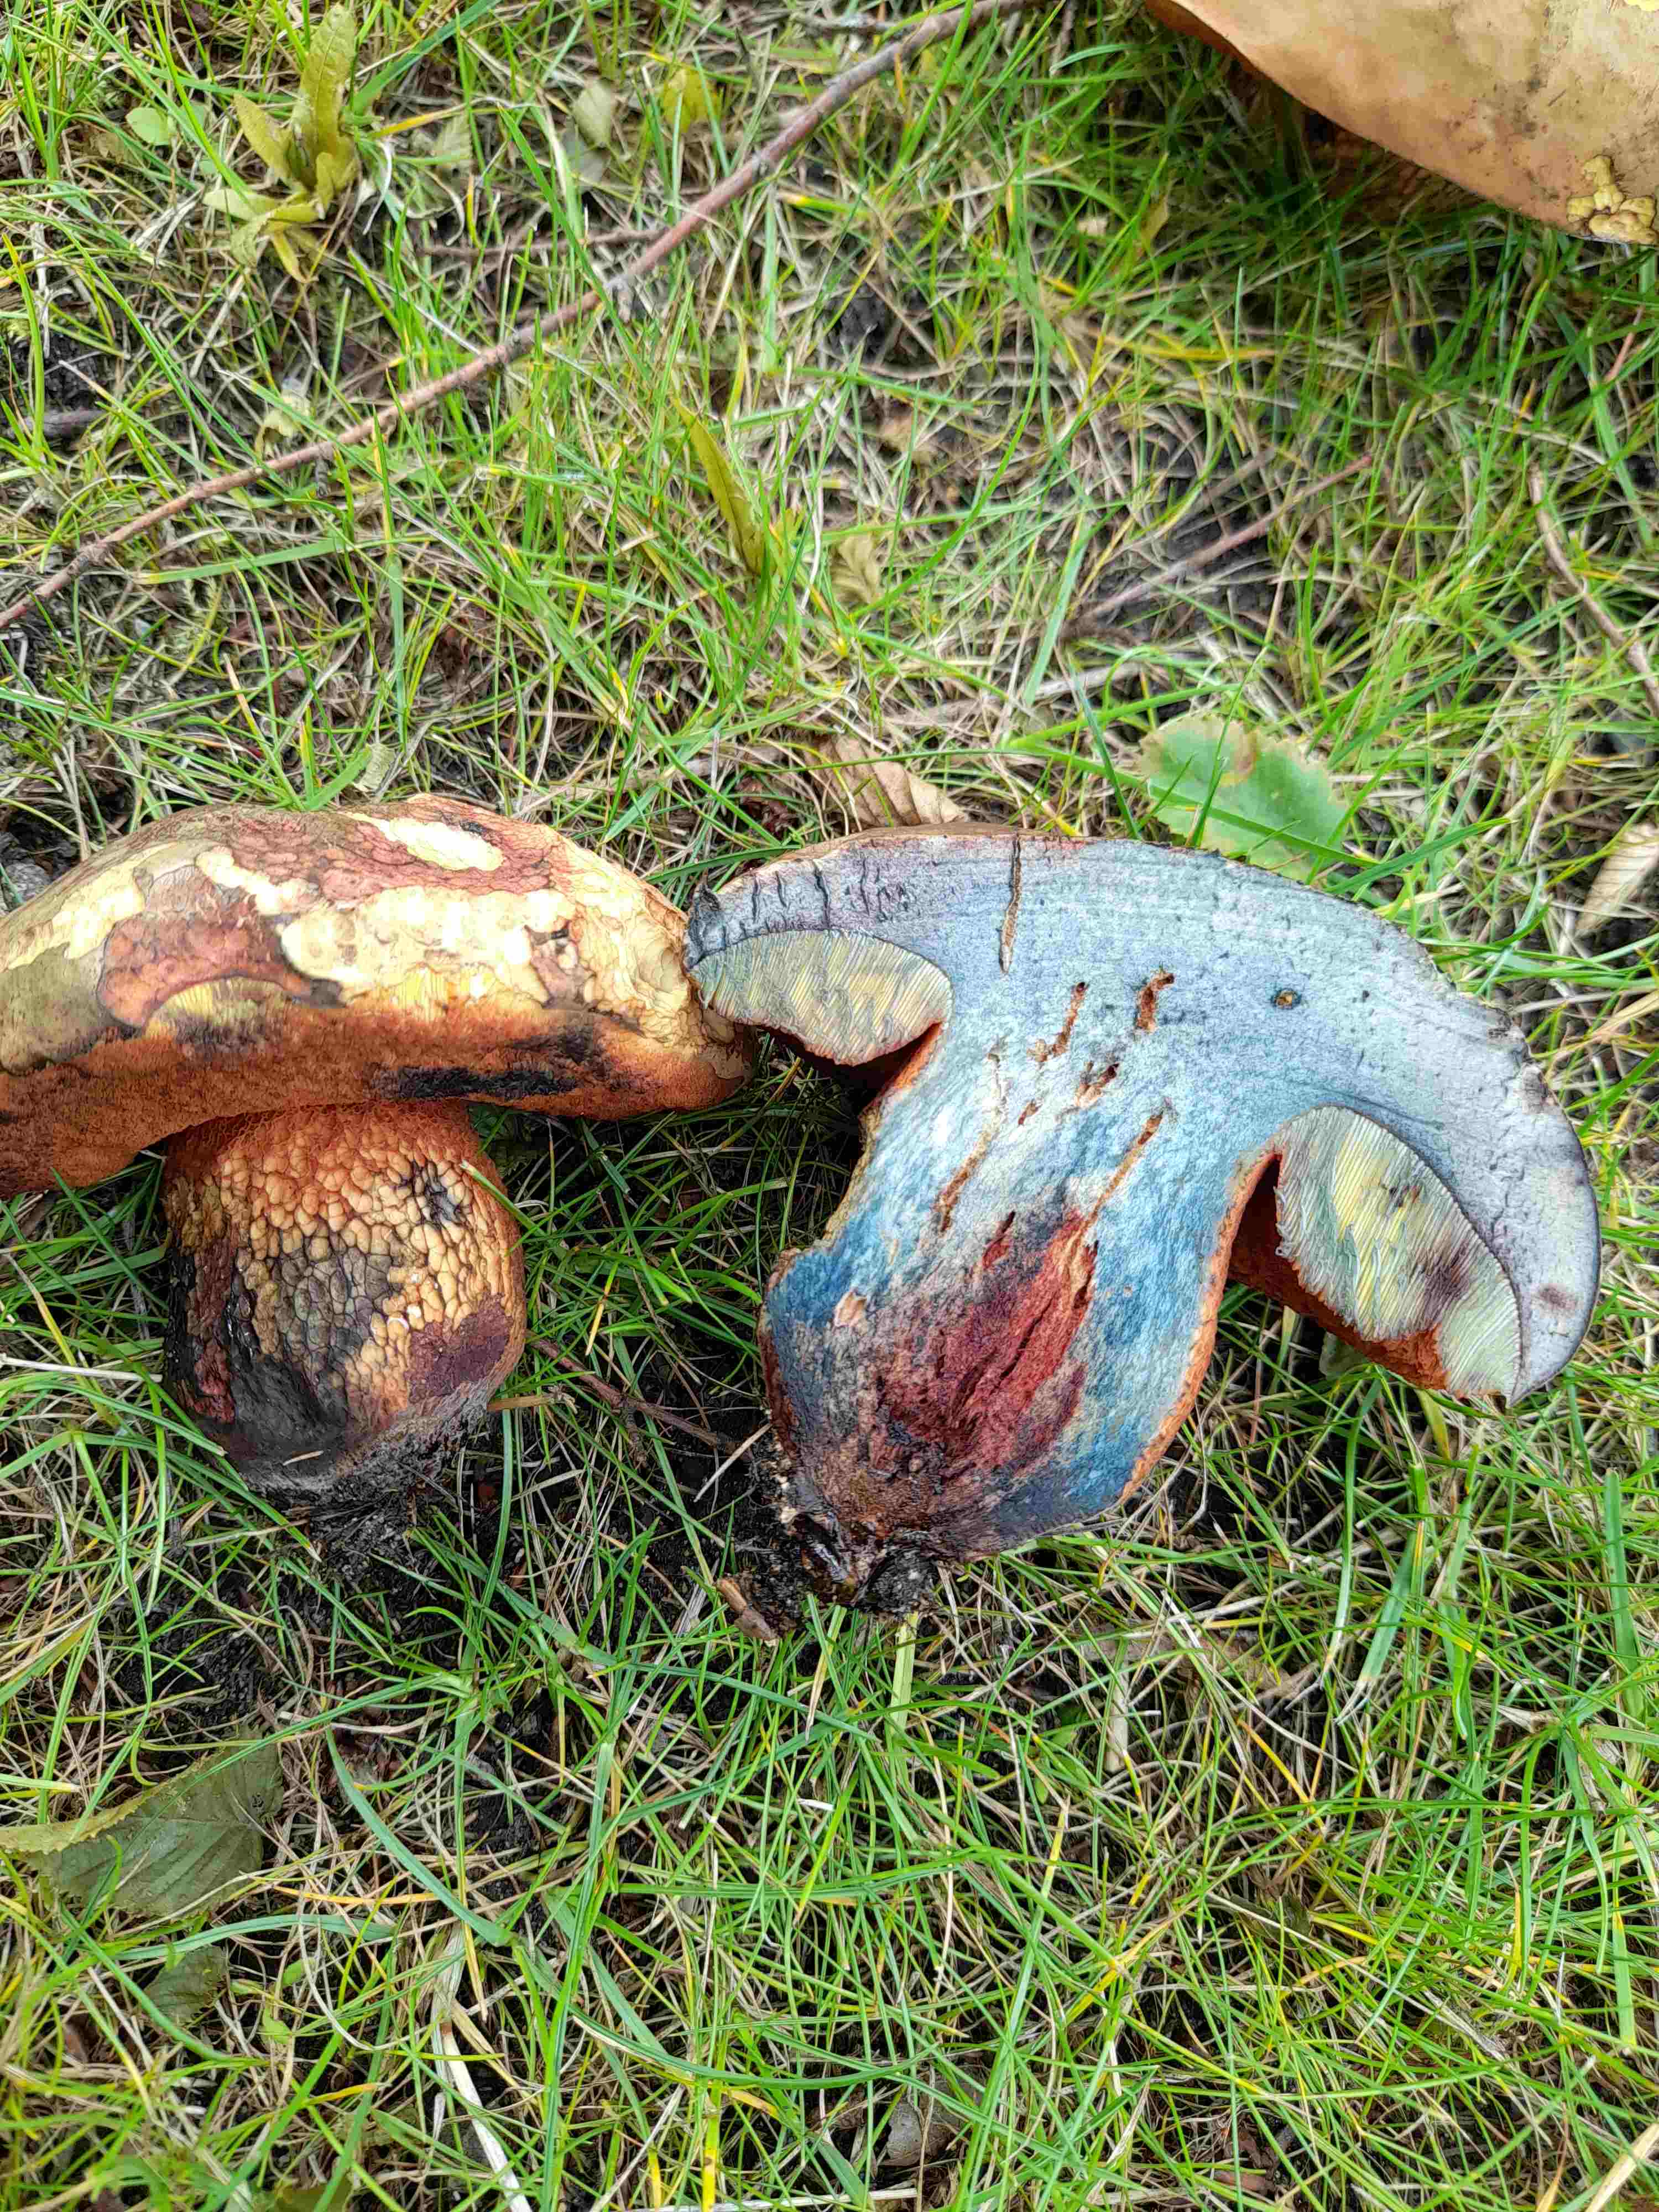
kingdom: Fungi
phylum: Basidiomycota
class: Agaricomycetes
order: Boletales
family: Boletaceae
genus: Suillellus
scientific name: Suillellus luridus
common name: netstokket indigorørhat
